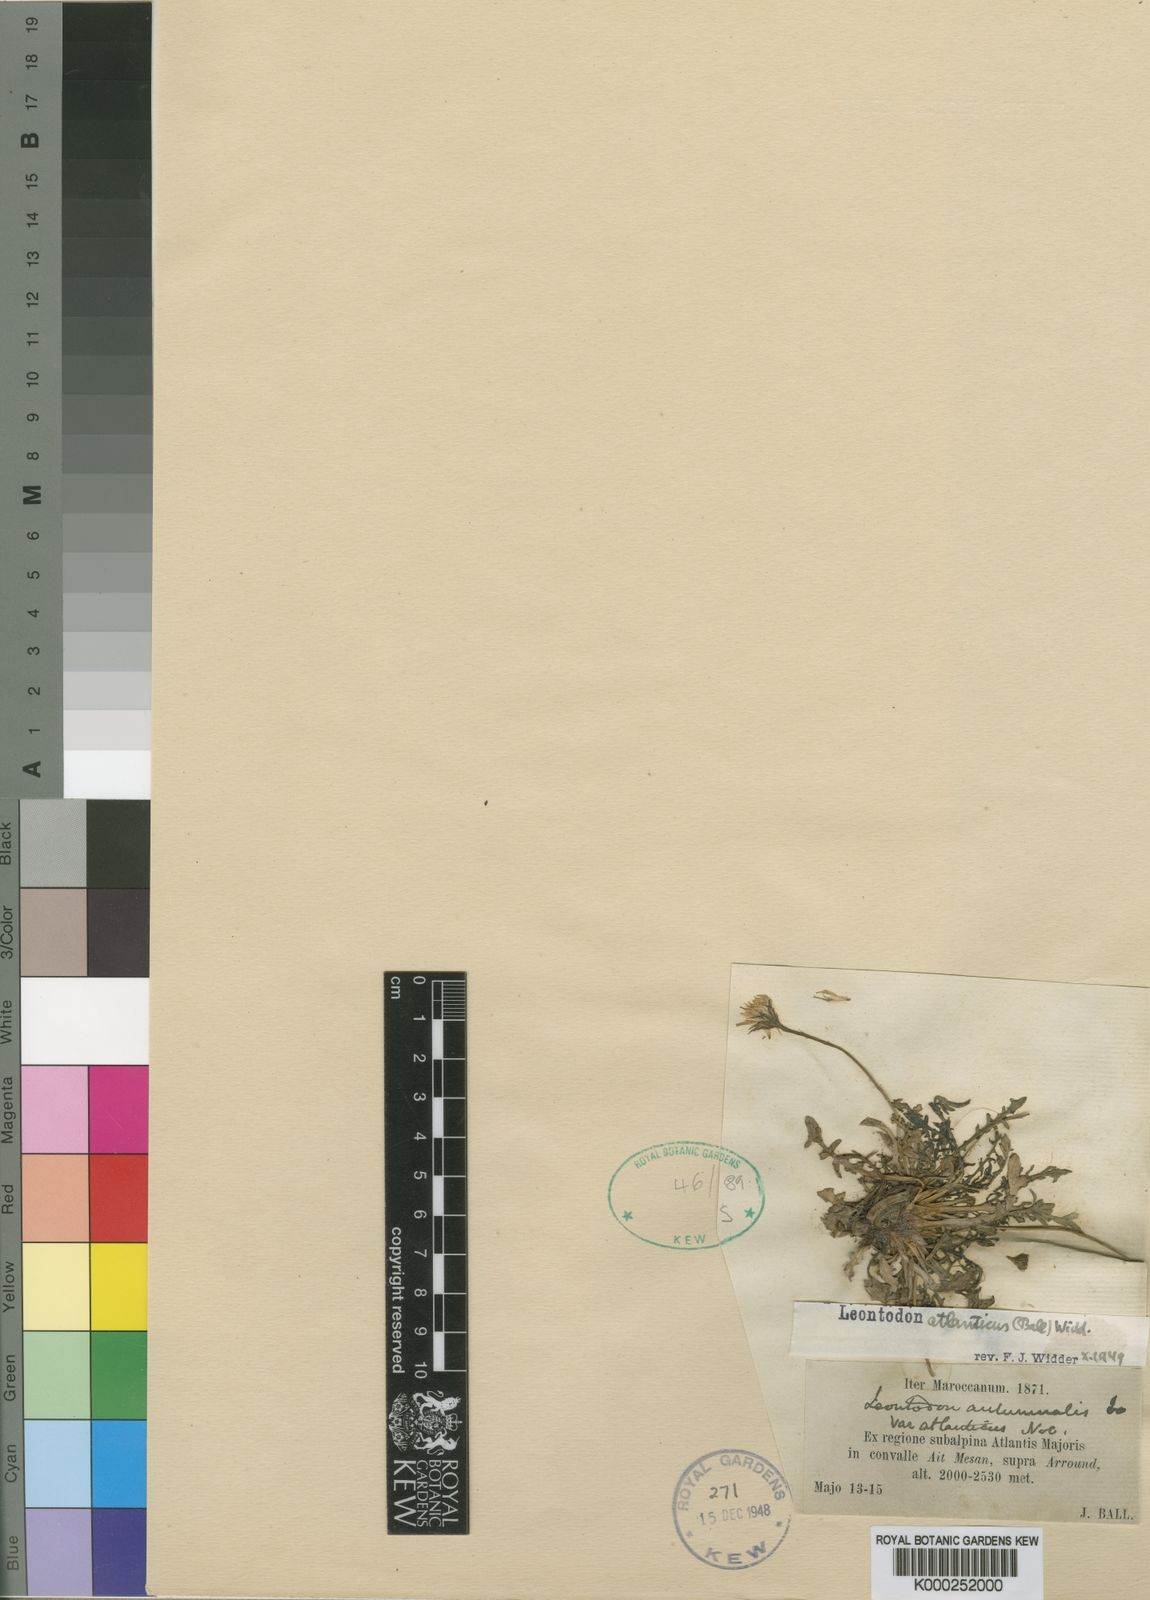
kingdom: Plantae
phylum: Tracheophyta
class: Magnoliopsida
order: Asterales
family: Asteraceae
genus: Scorzoneroides
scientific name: Scorzoneroides autumnalis
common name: Autumn hawkbit
